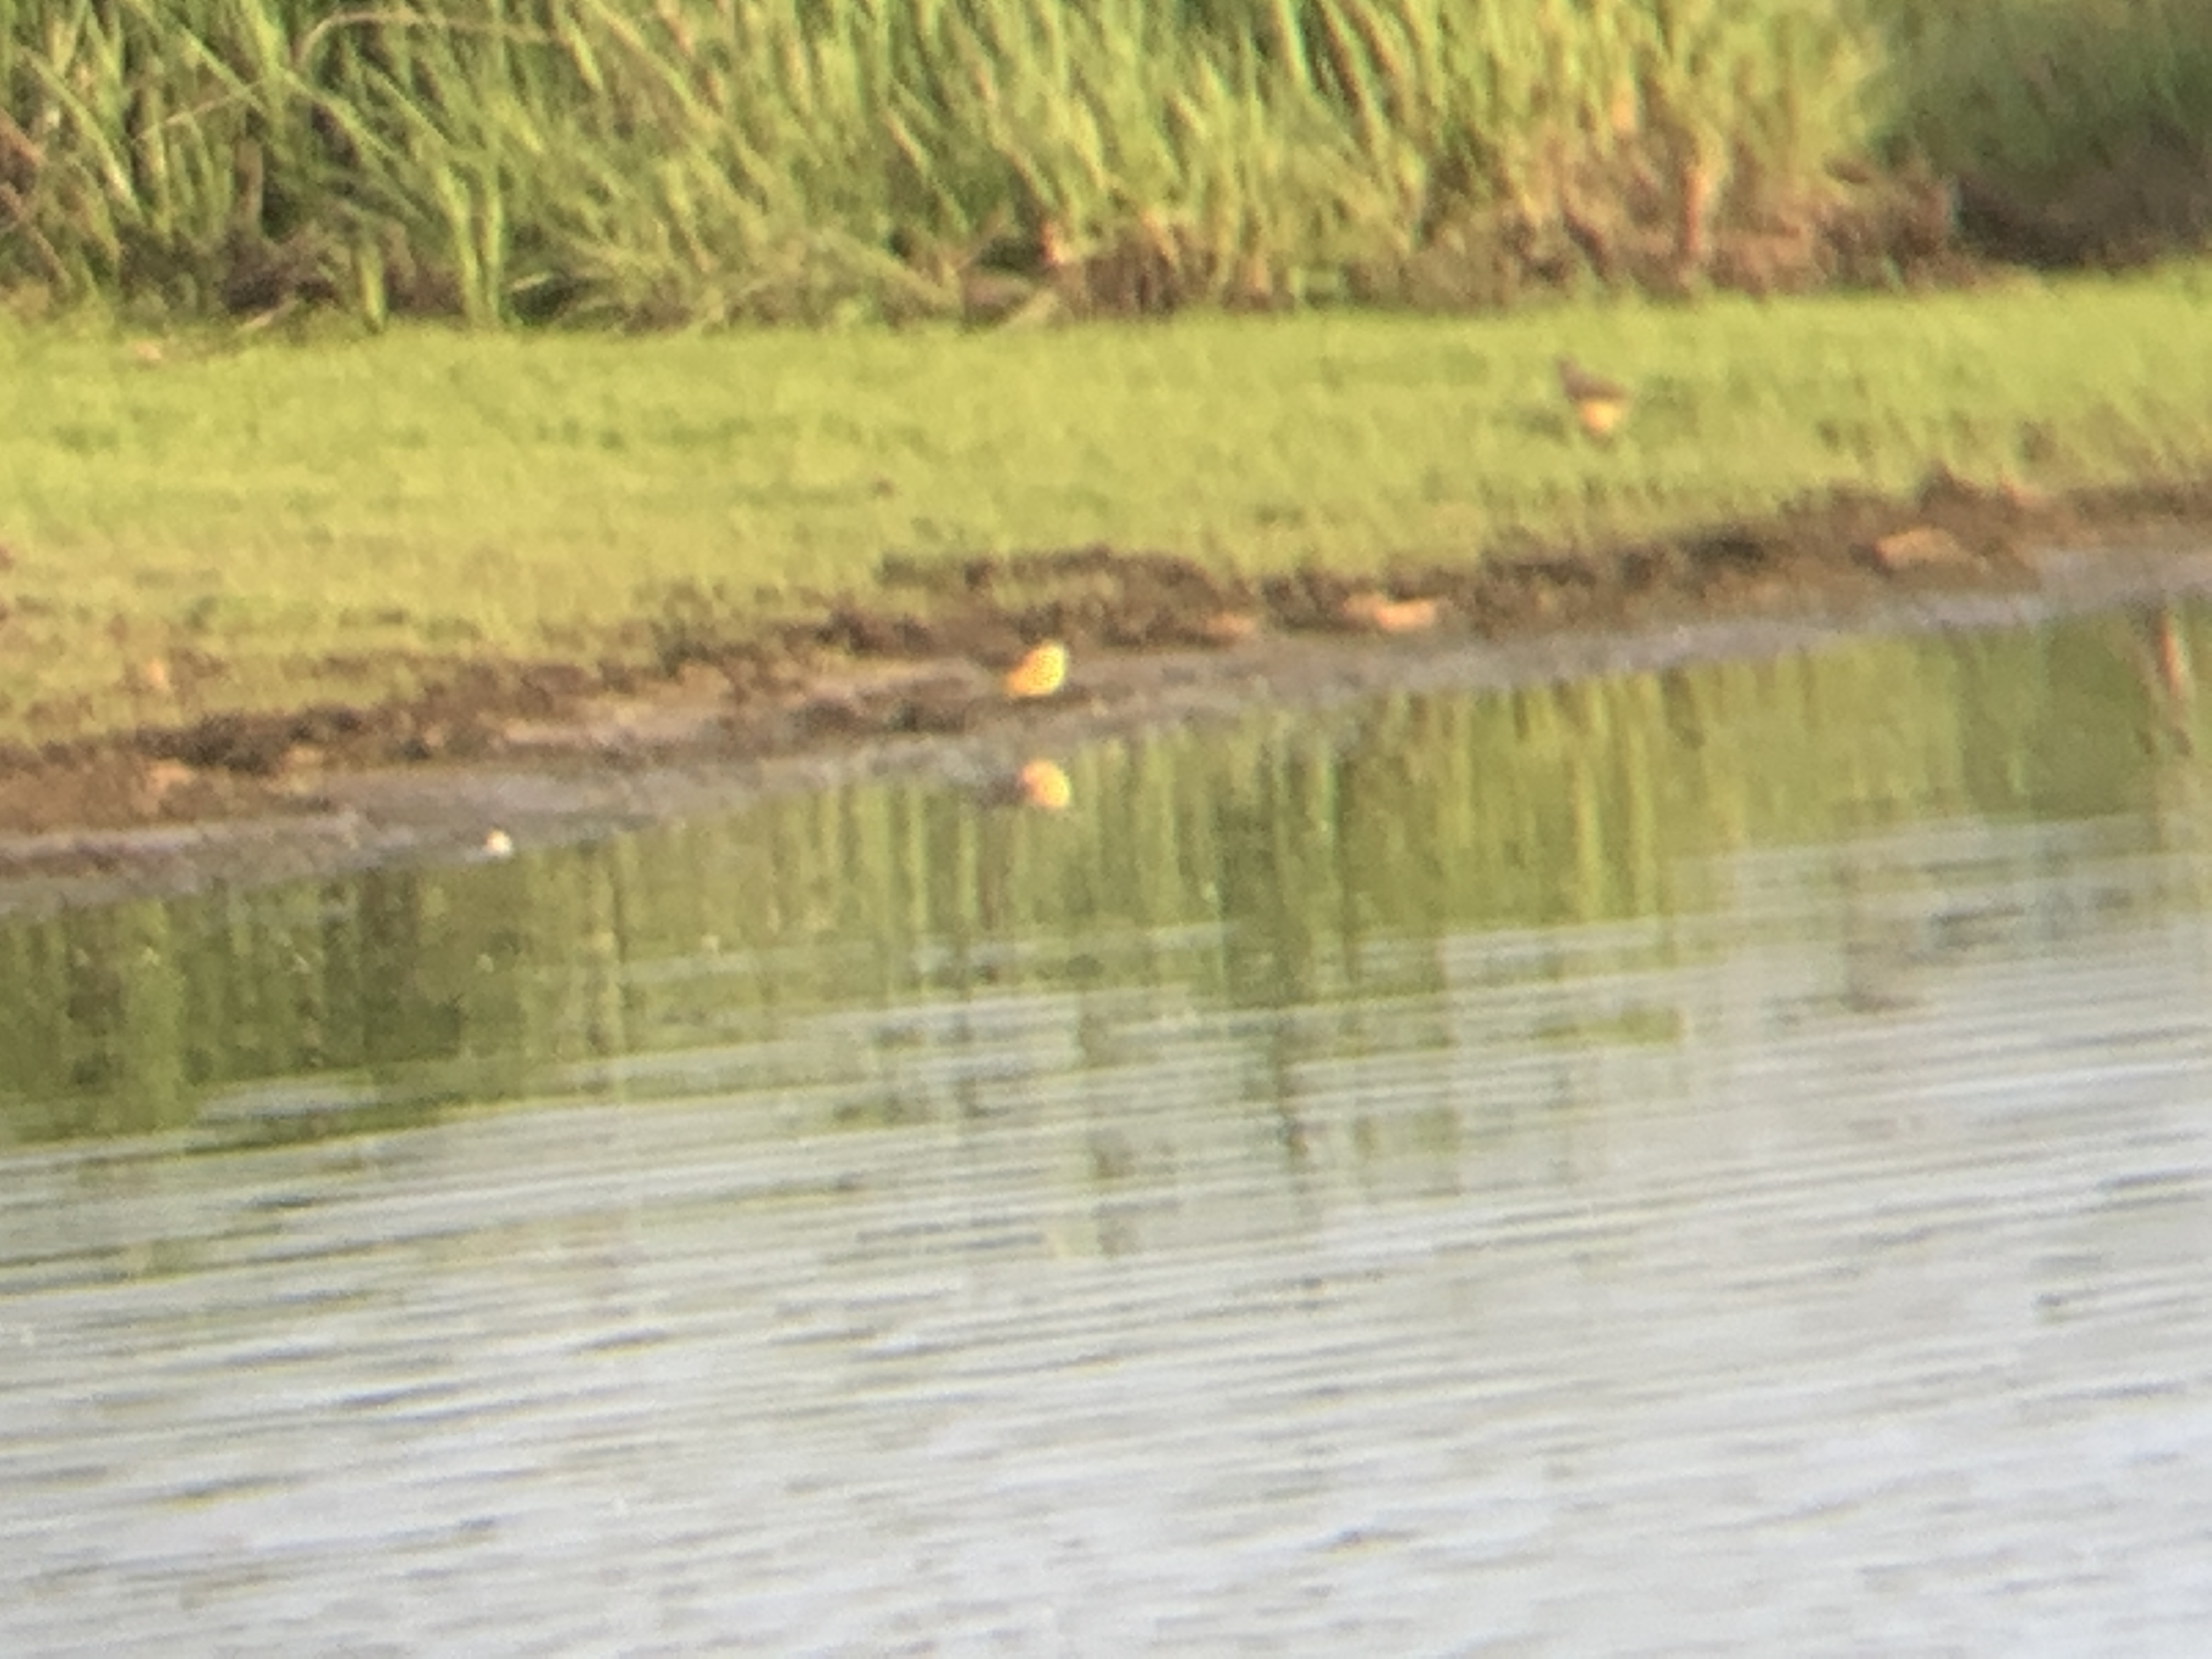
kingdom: Animalia
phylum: Chordata
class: Aves
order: Passeriformes
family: Motacillidae
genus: Motacilla
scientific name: Motacilla flava
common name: Gul vipstjert
